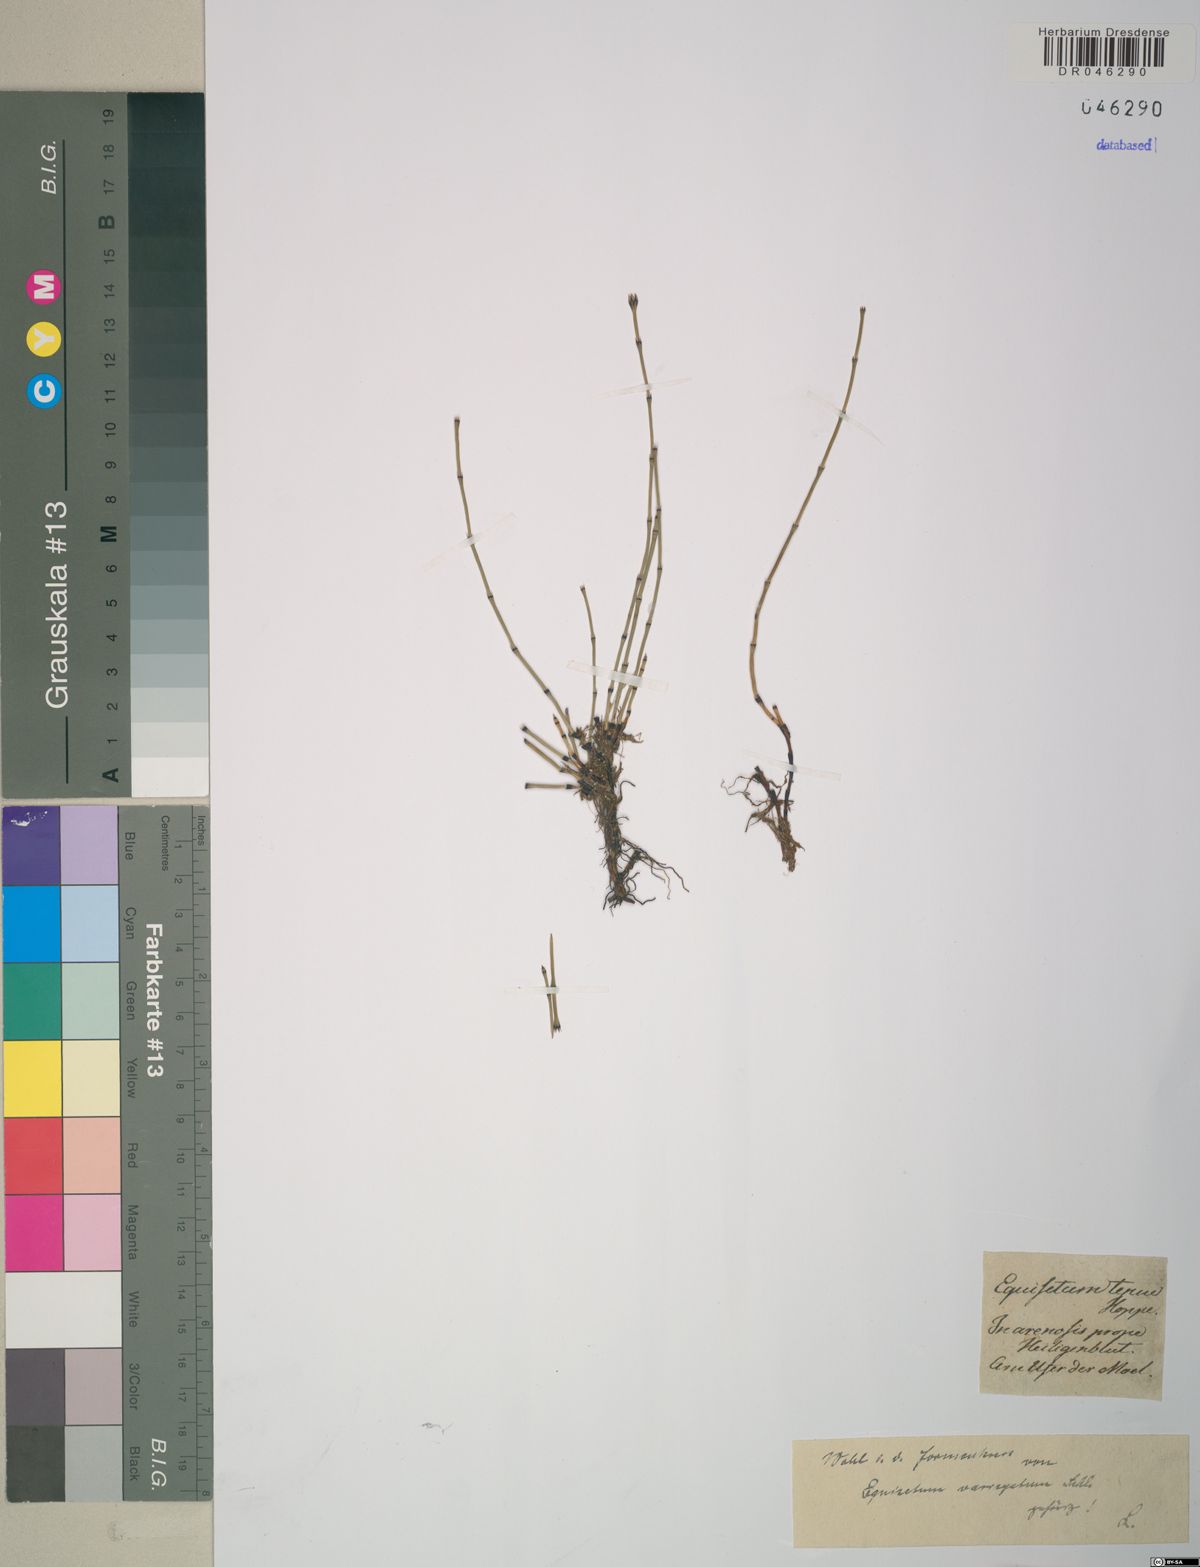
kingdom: Plantae
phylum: Tracheophyta
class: Polypodiopsida
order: Equisetales
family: Equisetaceae
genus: Equisetum
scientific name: Equisetum variegatum
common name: Variegated horsetail
